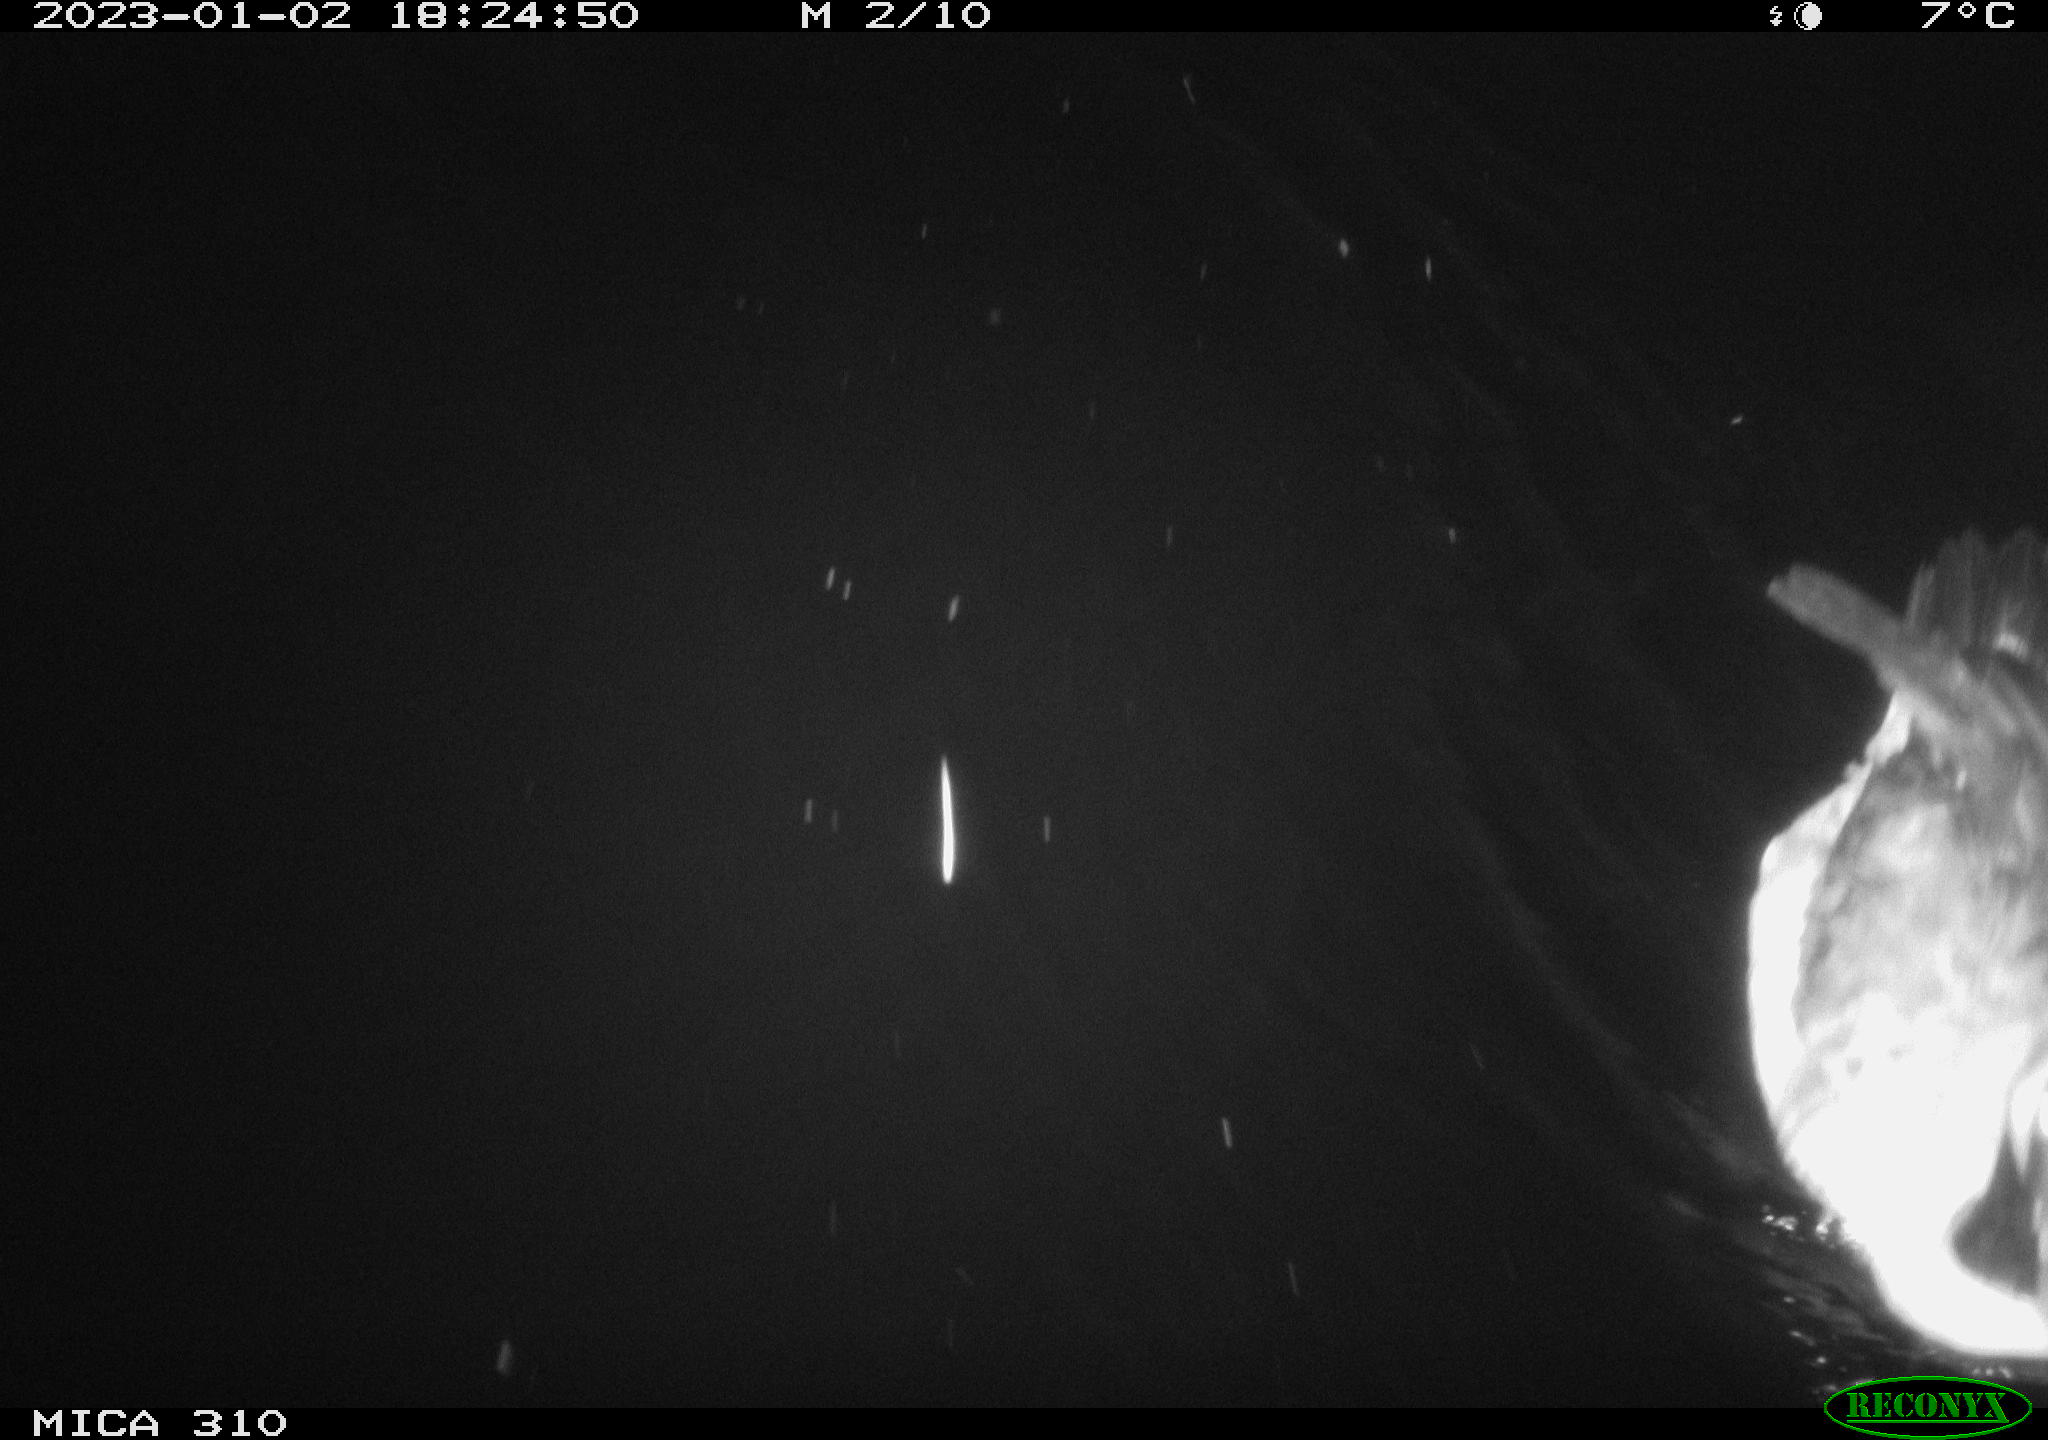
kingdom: Animalia
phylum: Chordata
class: Aves
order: Anseriformes
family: Anatidae
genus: Anas
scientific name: Anas
